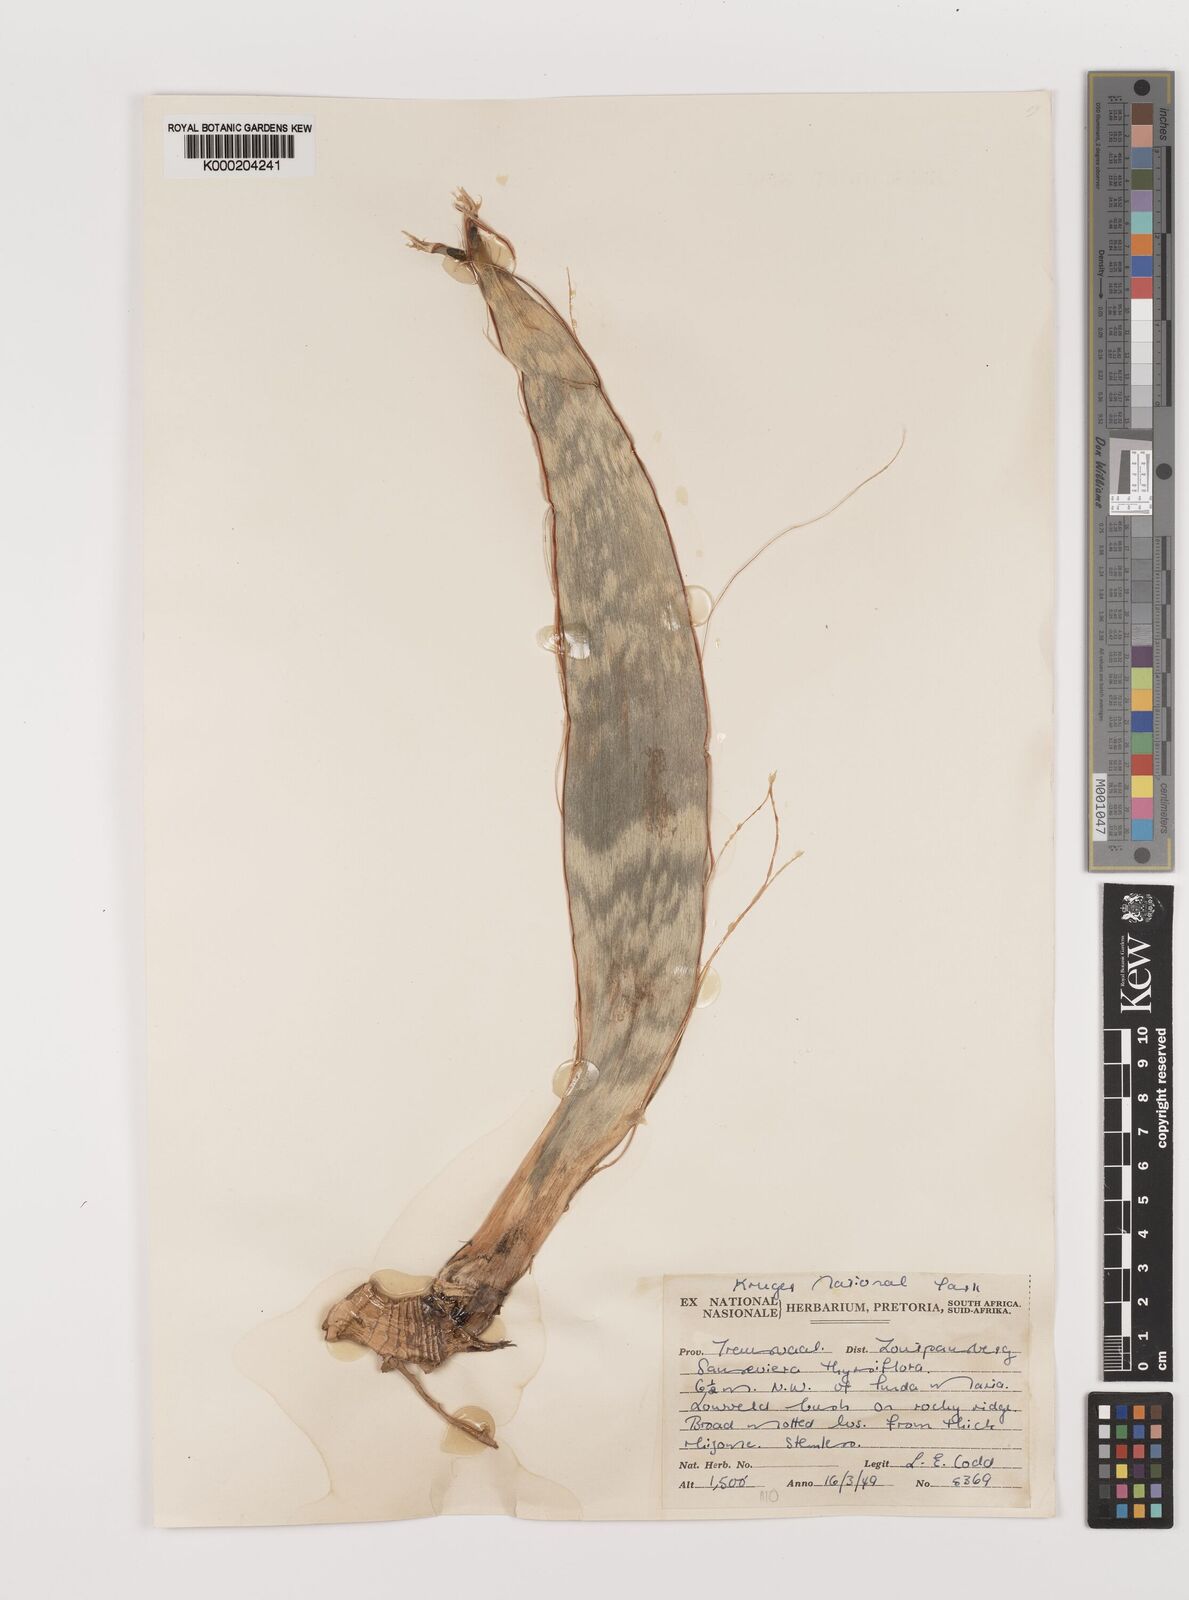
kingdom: Plantae
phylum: Tracheophyta
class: Liliopsida
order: Asparagales
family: Asparagaceae
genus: Dracaena
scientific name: Dracaena hyacinthoides
